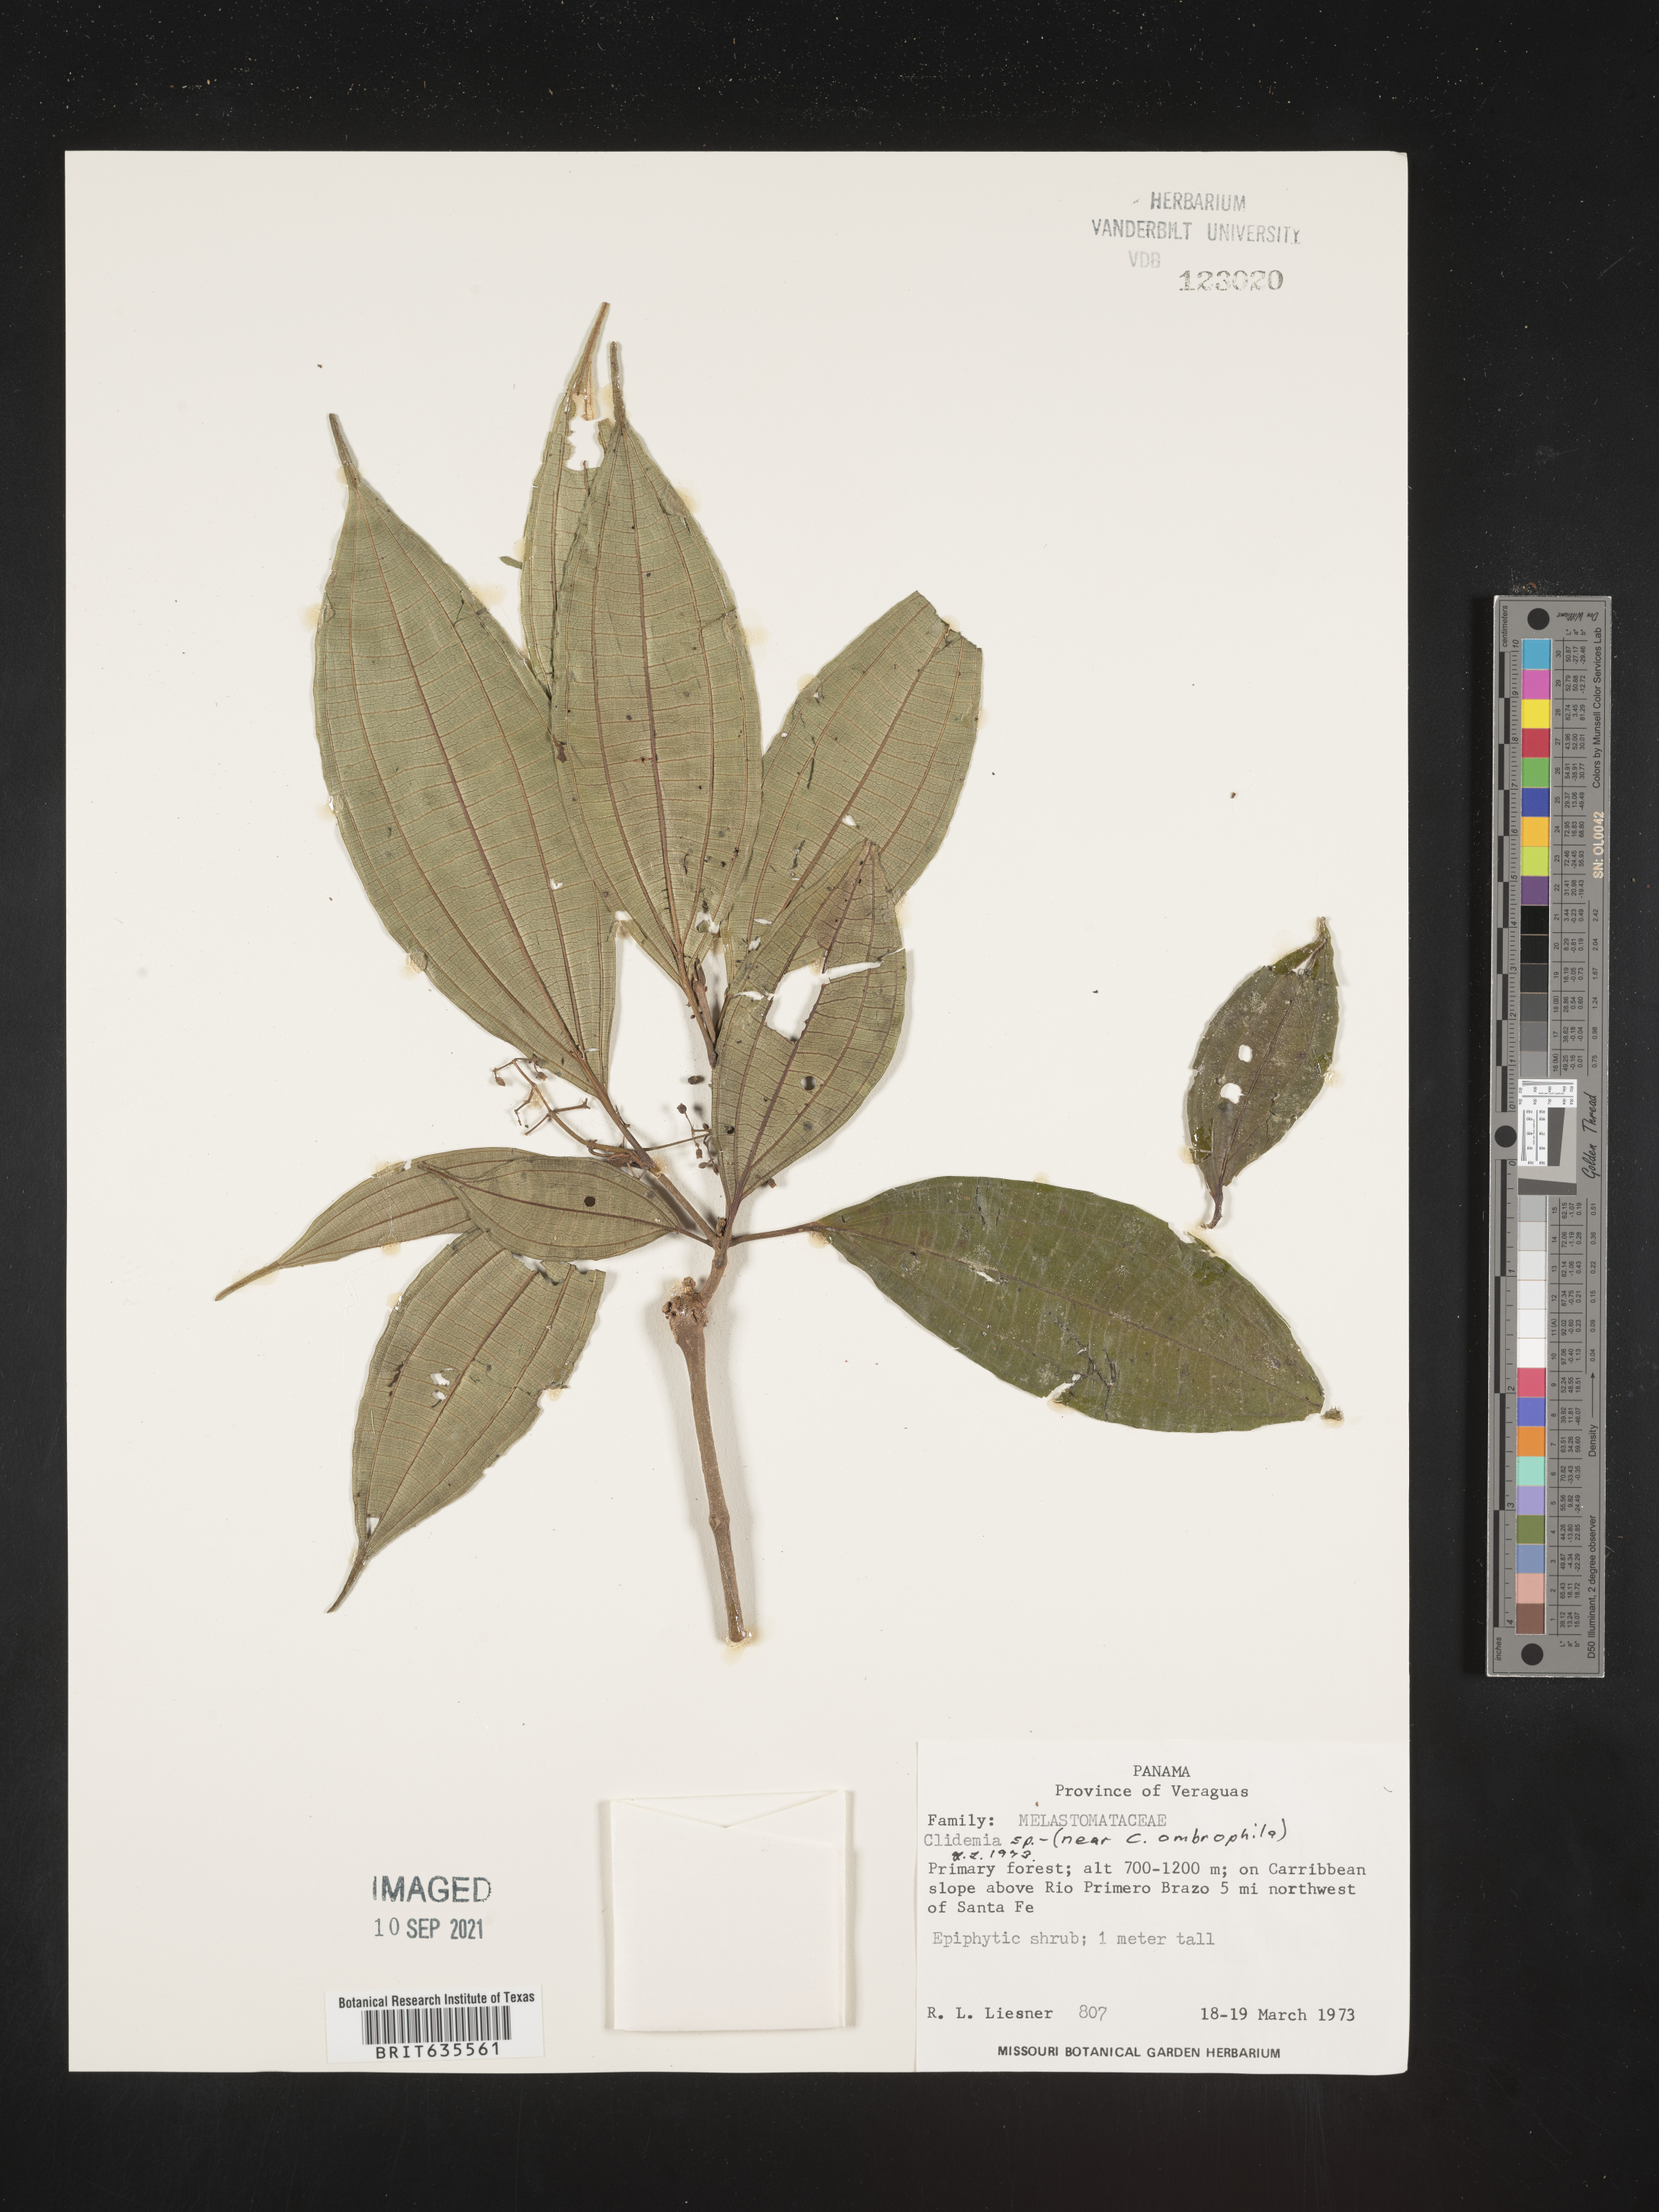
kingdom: Plantae
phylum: Tracheophyta
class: Magnoliopsida
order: Myrtales
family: Melastomataceae
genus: Miconia
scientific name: Miconia
